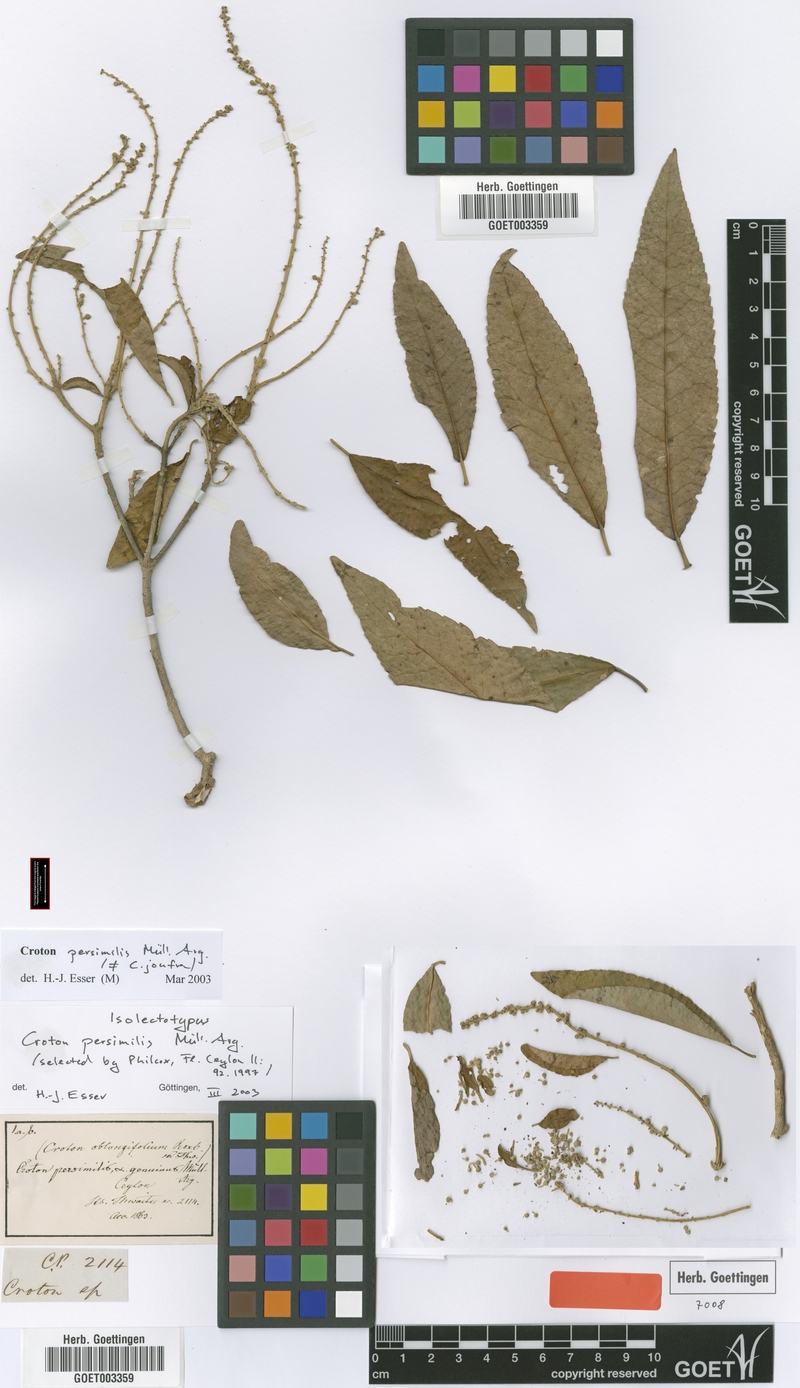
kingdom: Plantae
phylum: Tracheophyta
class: Magnoliopsida
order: Malpighiales
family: Euphorbiaceae
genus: Croton
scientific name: Croton persimilis
